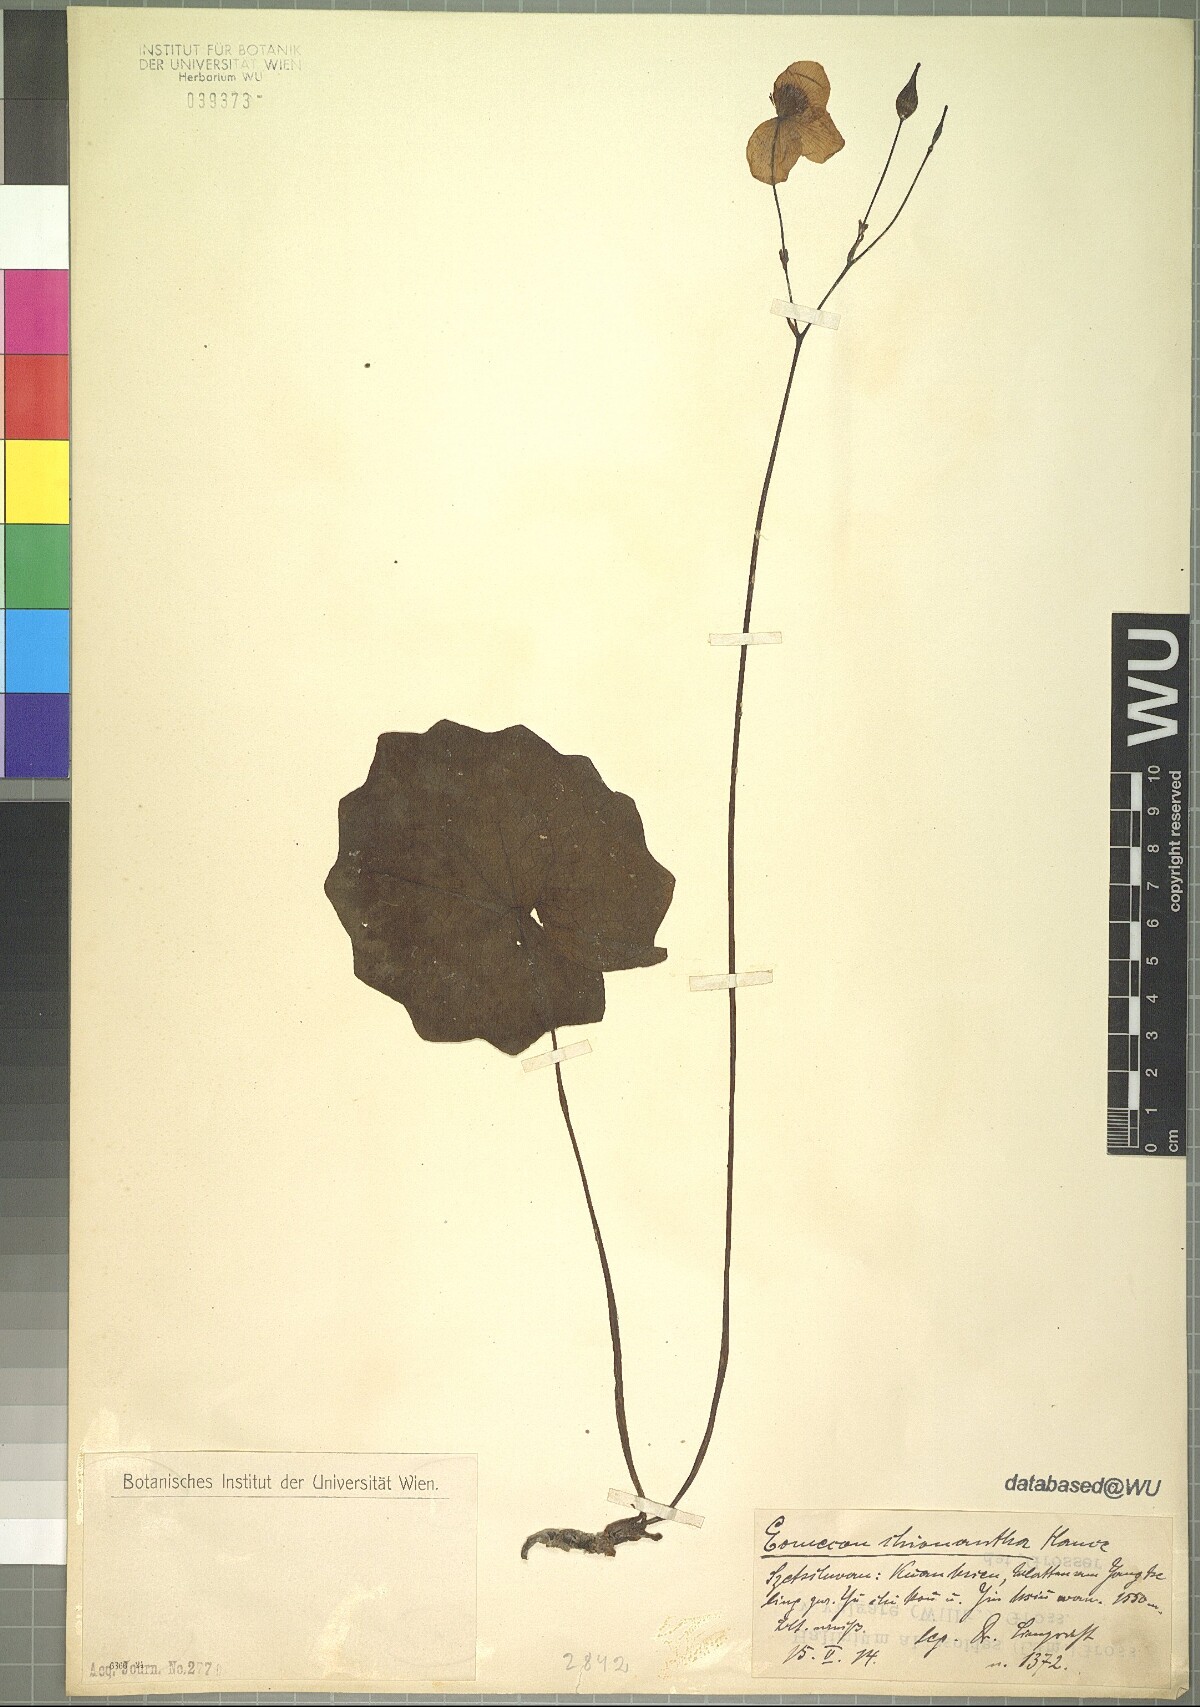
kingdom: Plantae
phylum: Tracheophyta
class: Magnoliopsida
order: Ranunculales
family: Papaveraceae
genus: Eomecon
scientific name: Eomecon chionantha
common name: Dawn-poppy
